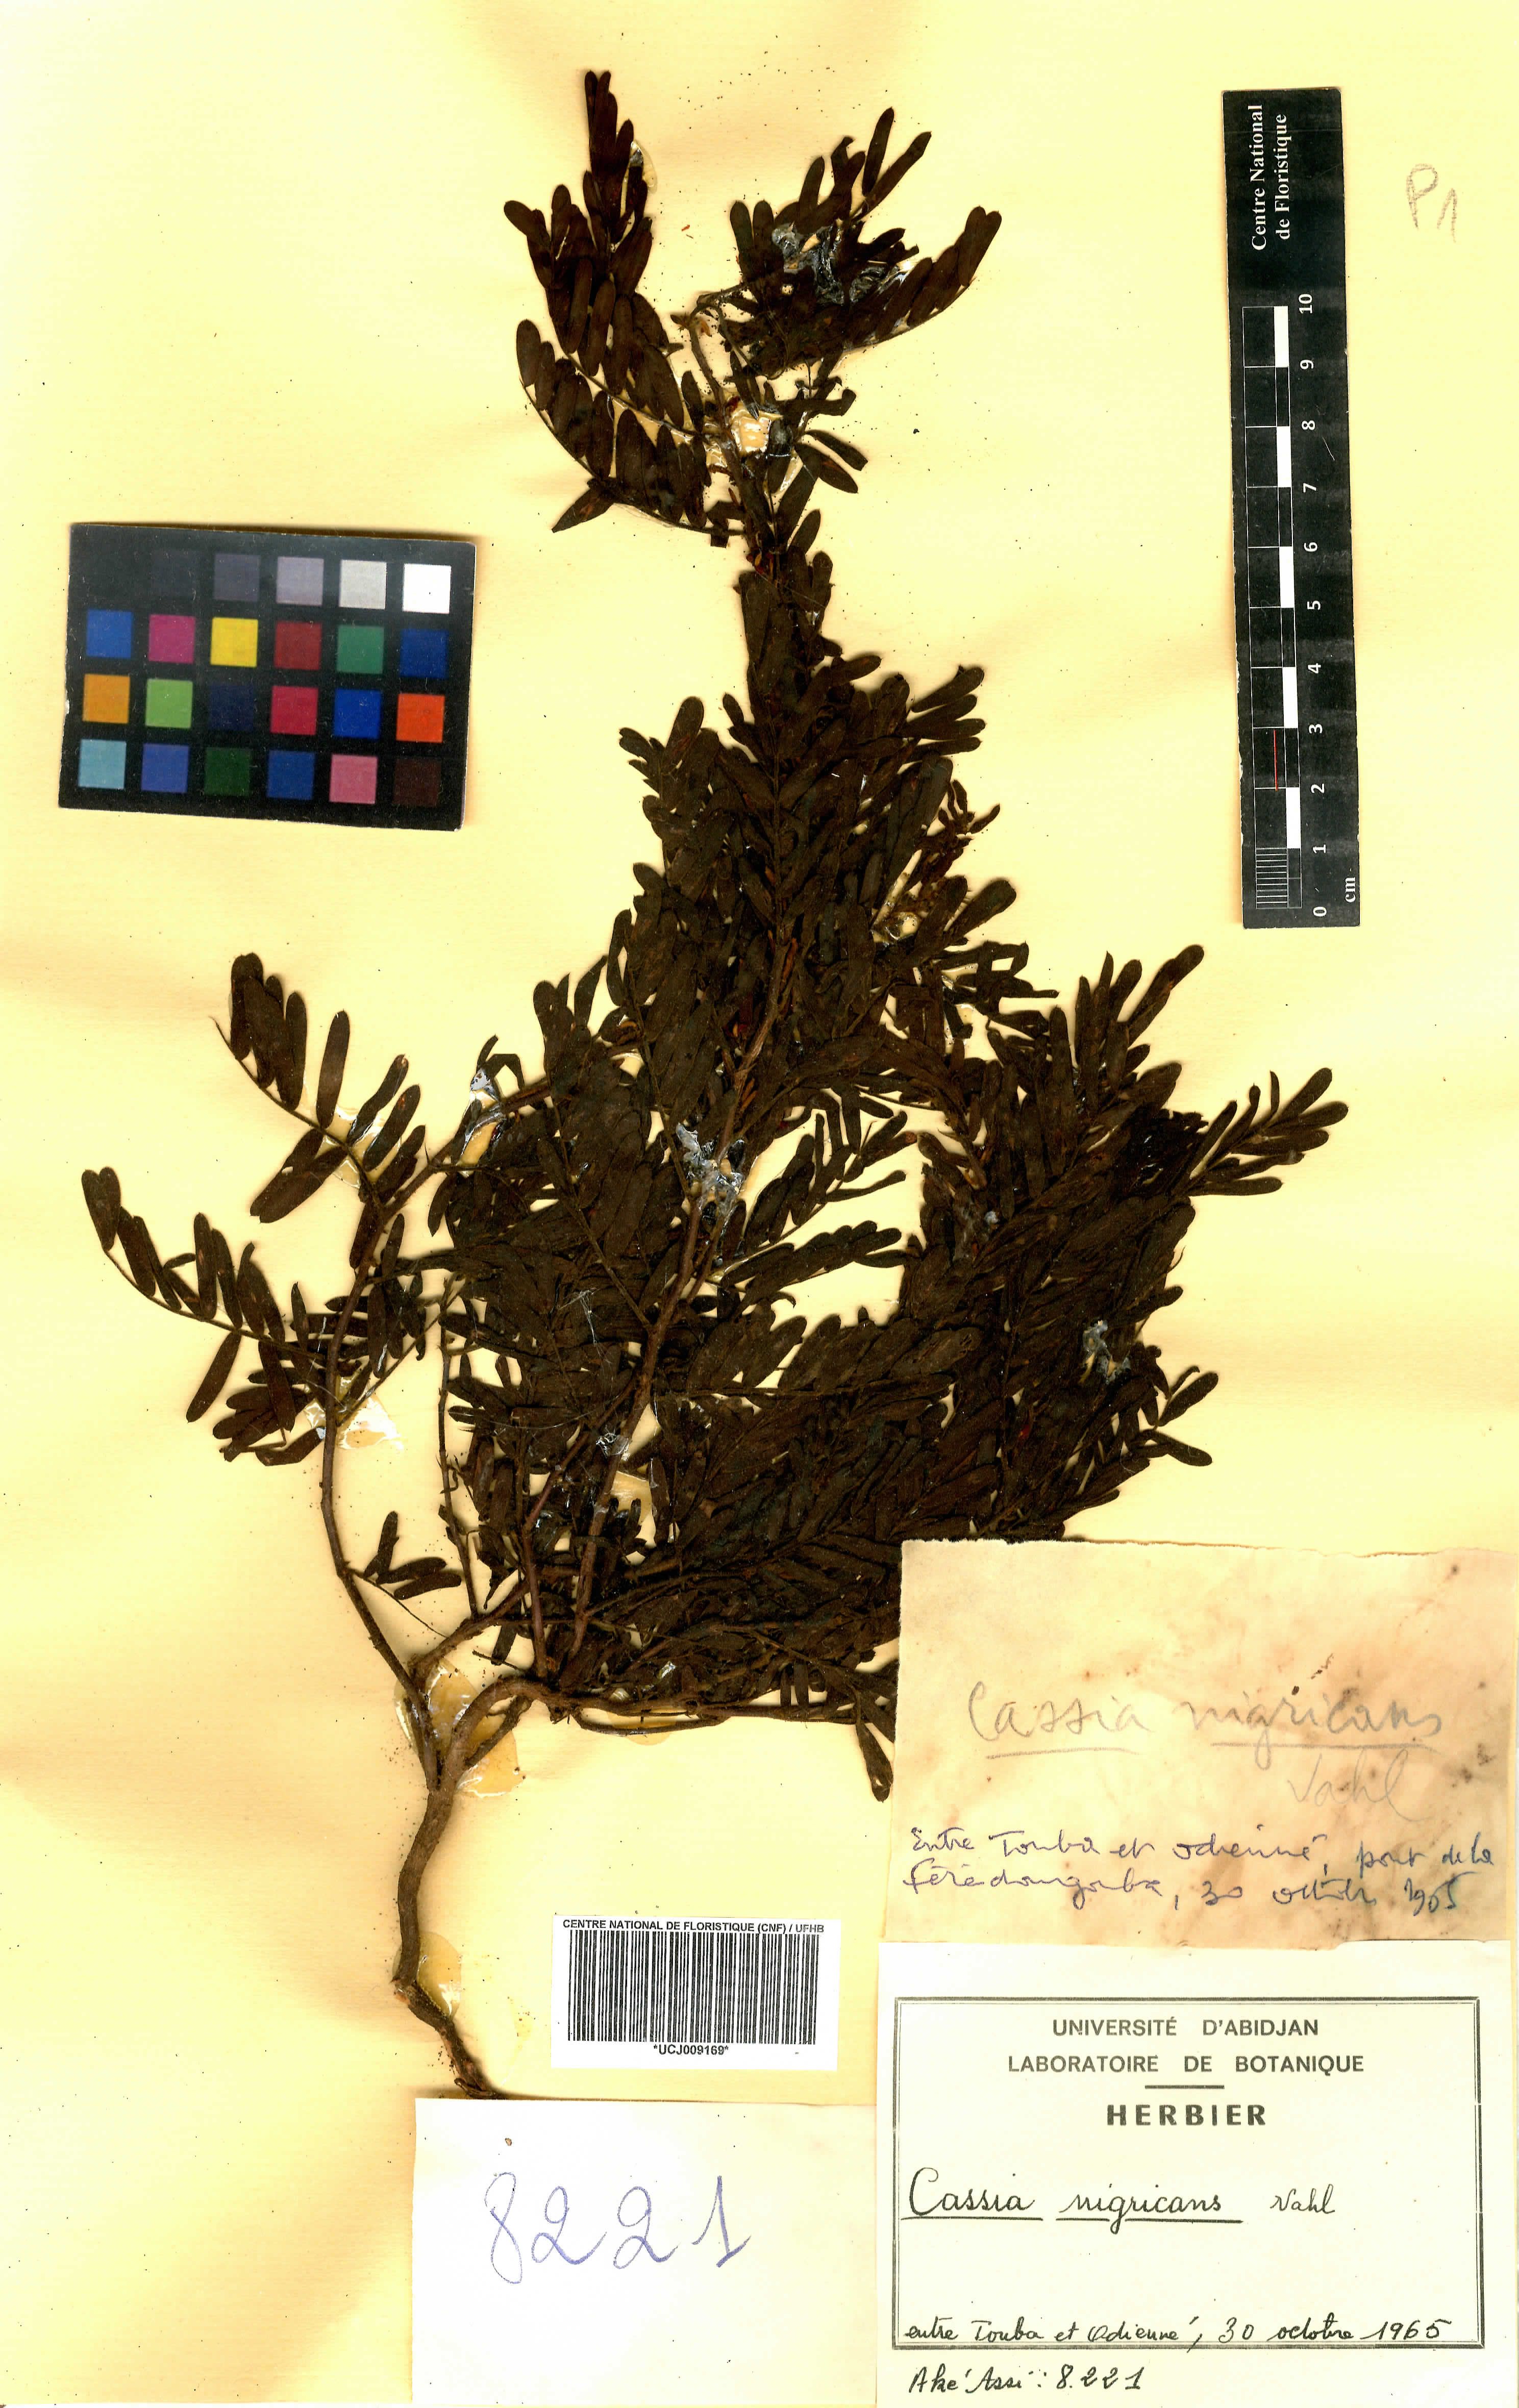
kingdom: Plantae
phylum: Tracheophyta
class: Magnoliopsida
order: Fabales
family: Fabaceae
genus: Chamaecrista
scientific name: Chamaecrista nigricans
